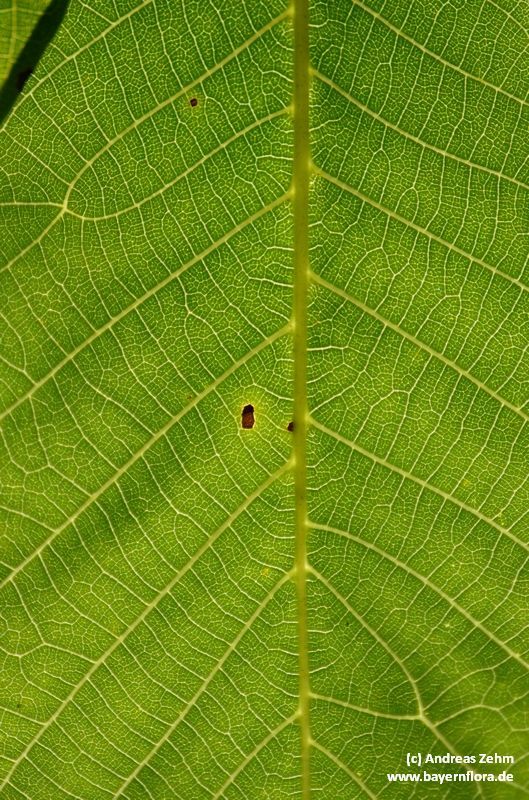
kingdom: Plantae
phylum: Tracheophyta
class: Magnoliopsida
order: Fagales
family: Juglandaceae
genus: Juglans
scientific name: Juglans regia
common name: Walnut
